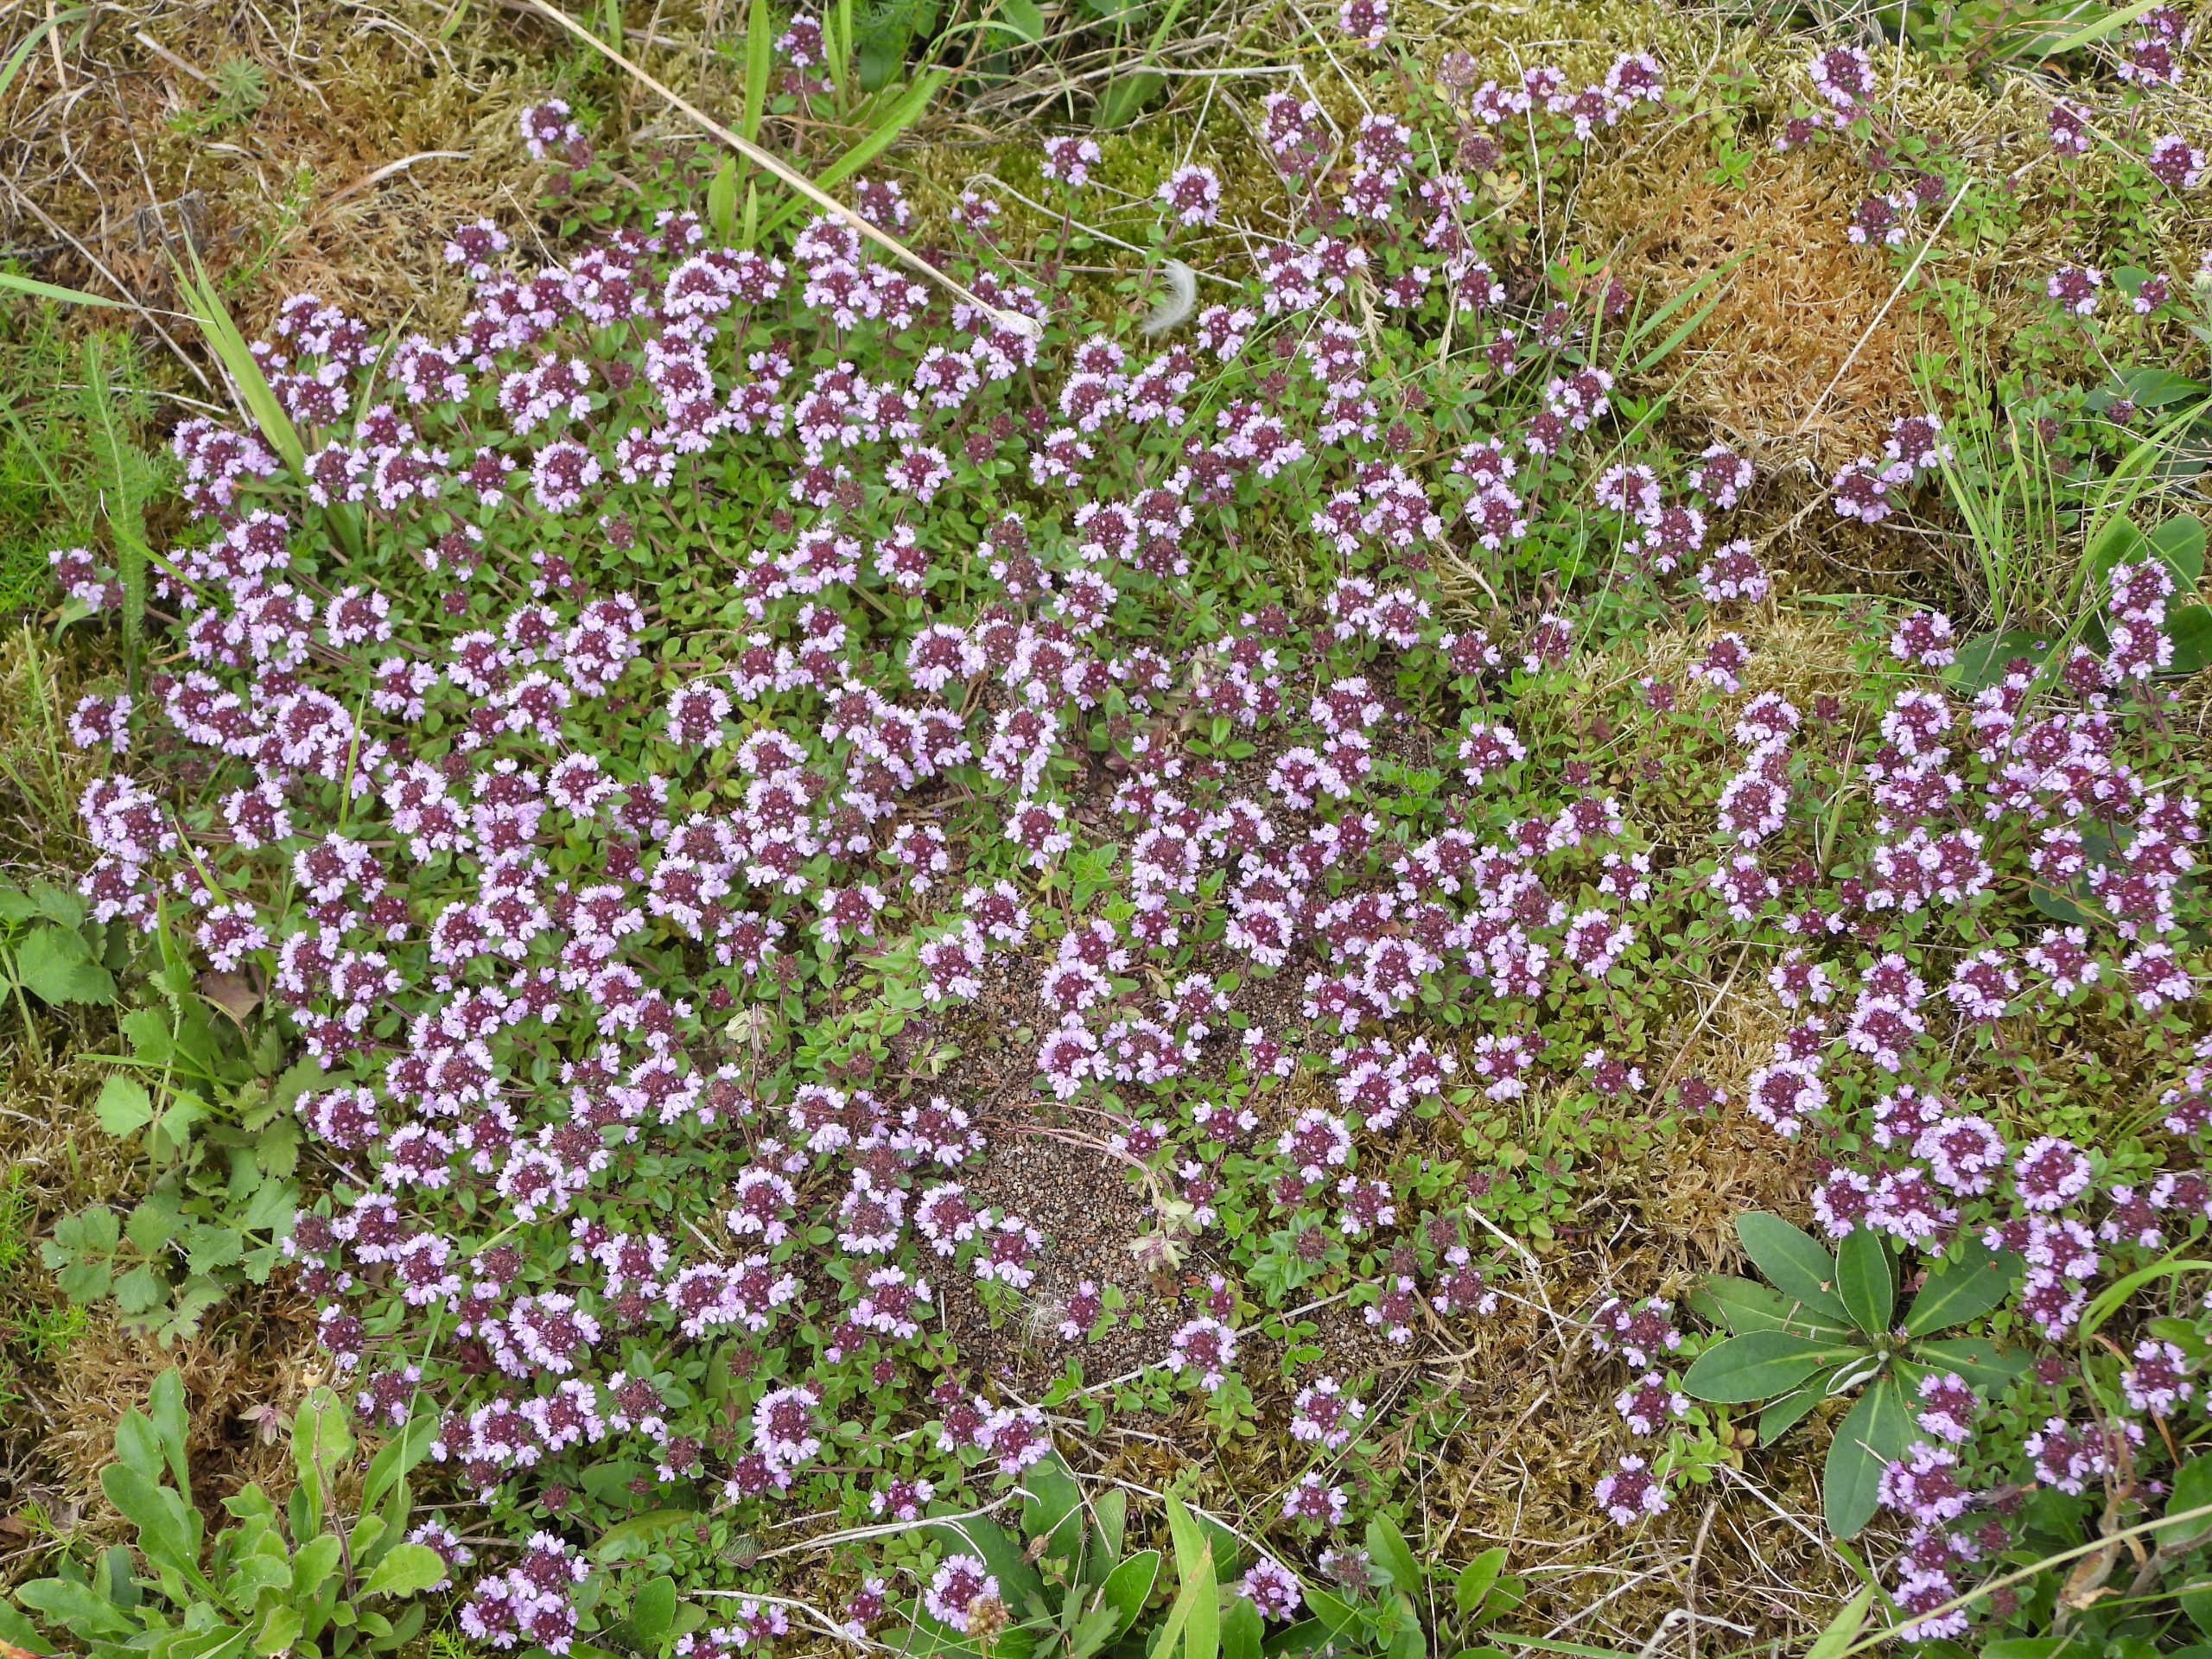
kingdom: Plantae
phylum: Tracheophyta
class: Magnoliopsida
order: Lamiales
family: Lamiaceae
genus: Thymus
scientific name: Thymus pulegioides
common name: Bredbladet timian
